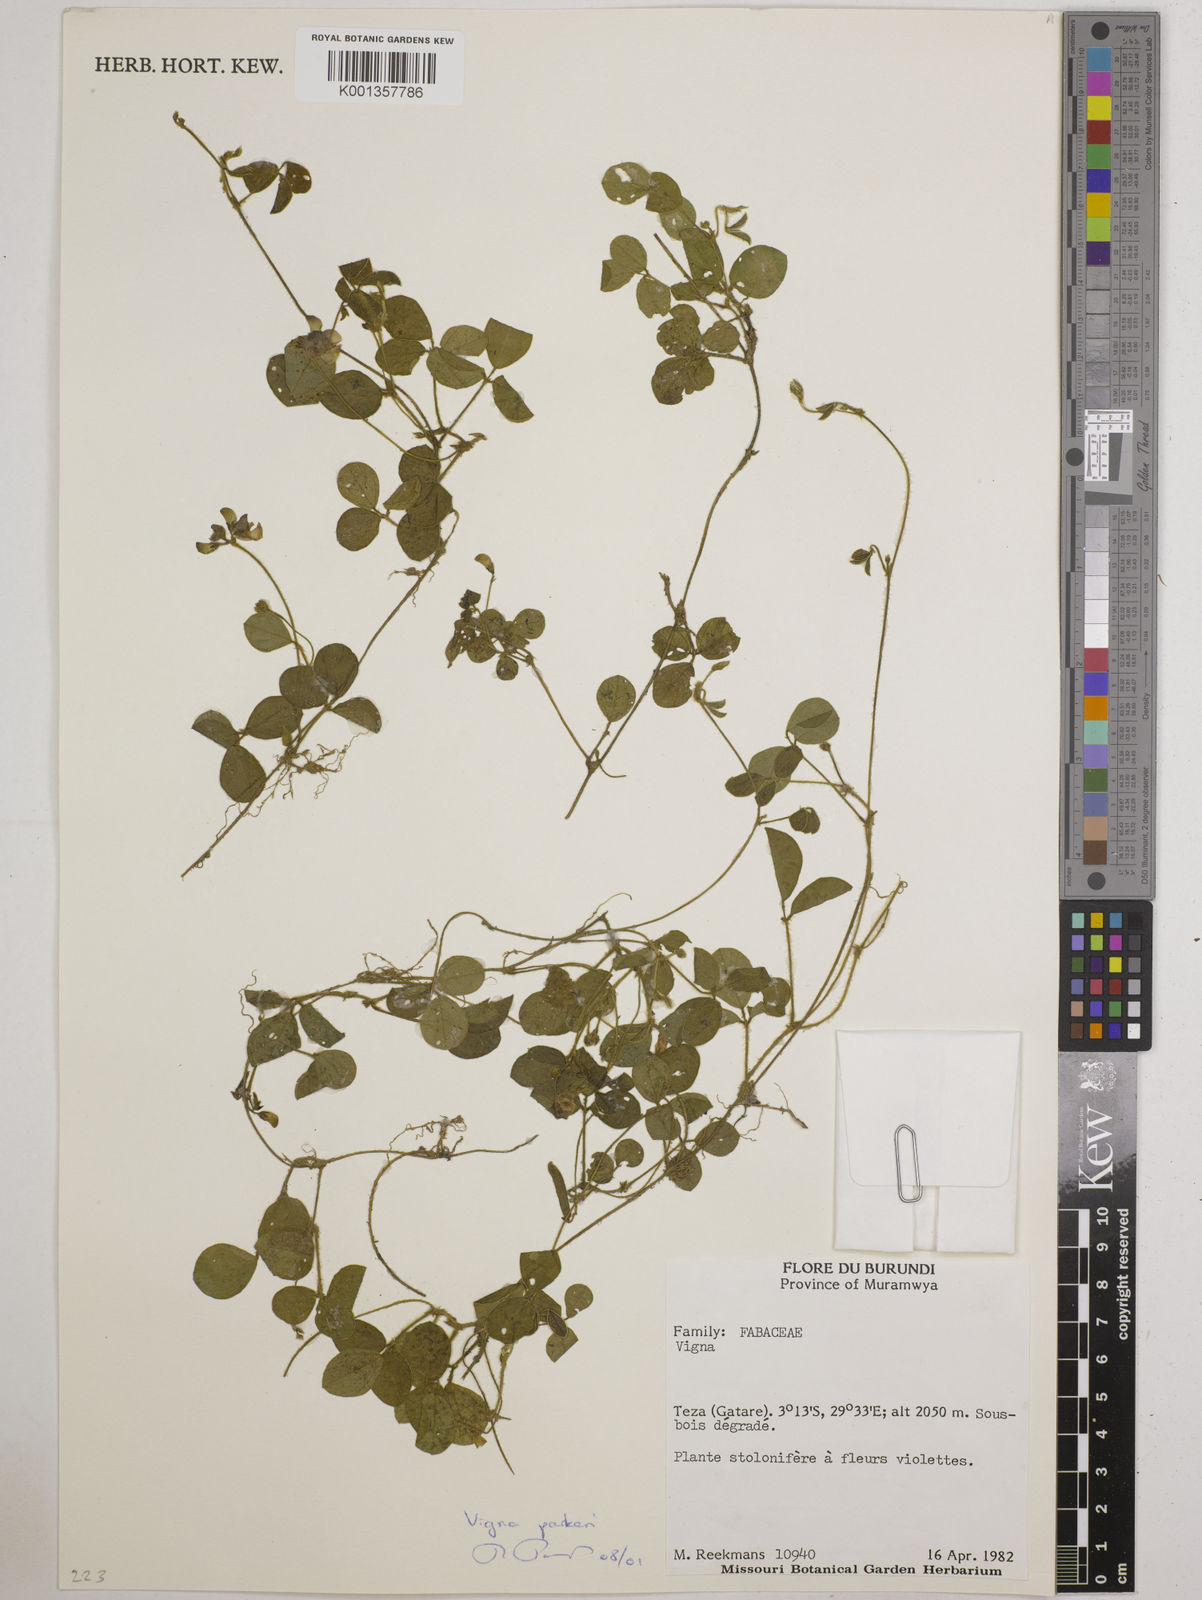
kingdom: Plantae
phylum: Tracheophyta
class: Magnoliopsida
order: Fabales
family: Fabaceae
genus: Vigna
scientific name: Vigna
